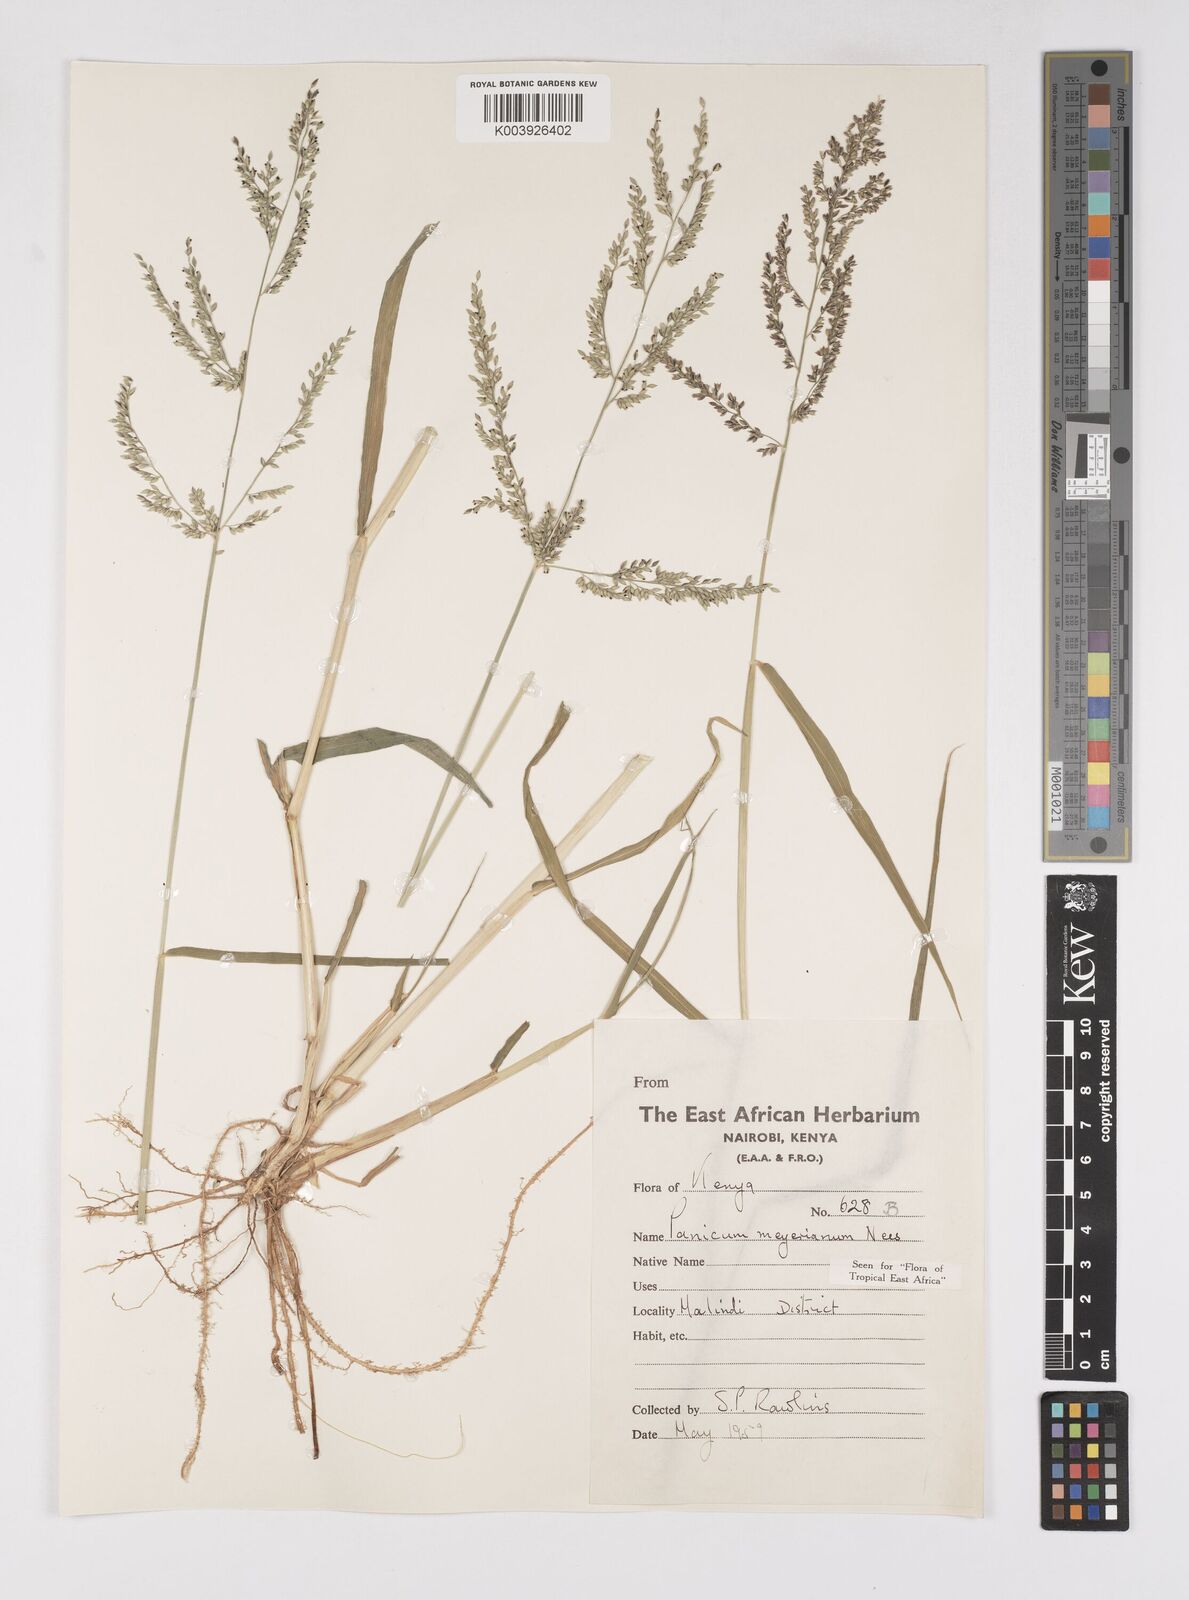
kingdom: Plantae
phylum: Tracheophyta
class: Liliopsida
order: Poales
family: Poaceae
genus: Eriochloa
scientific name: Eriochloa meyeriana
